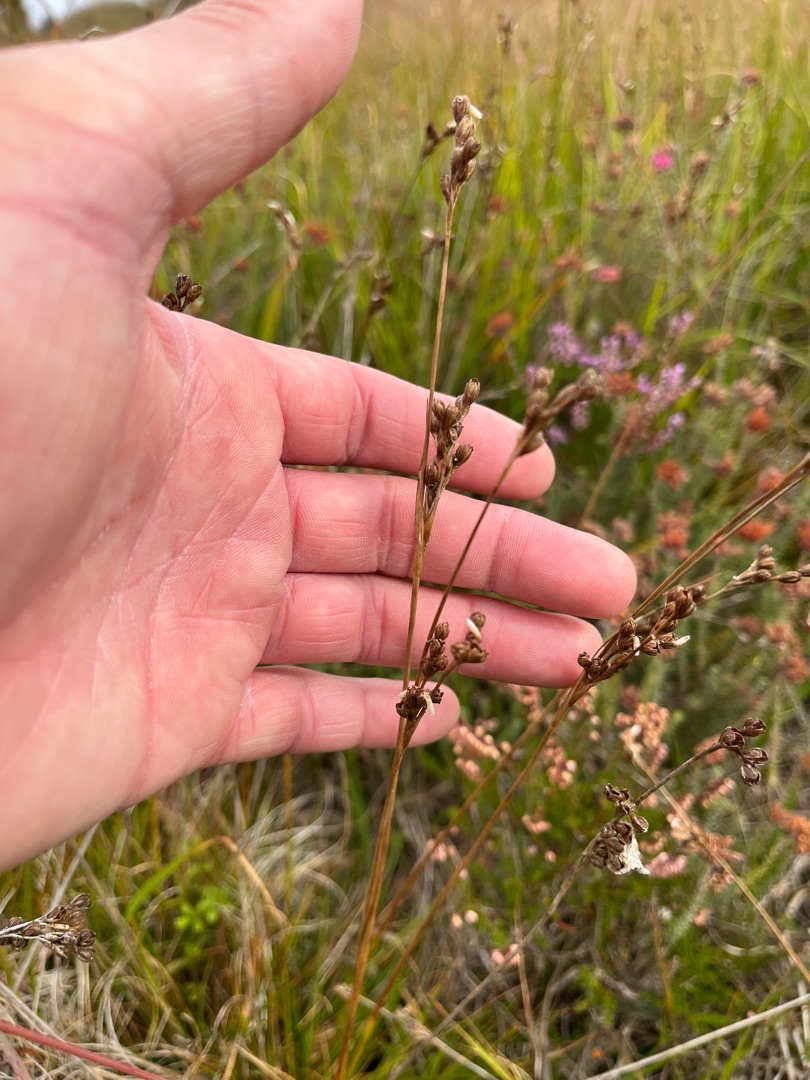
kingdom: Plantae
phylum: Tracheophyta
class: Liliopsida
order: Poales
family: Juncaceae
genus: Juncus
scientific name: Juncus squarrosus
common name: Børste-siv
